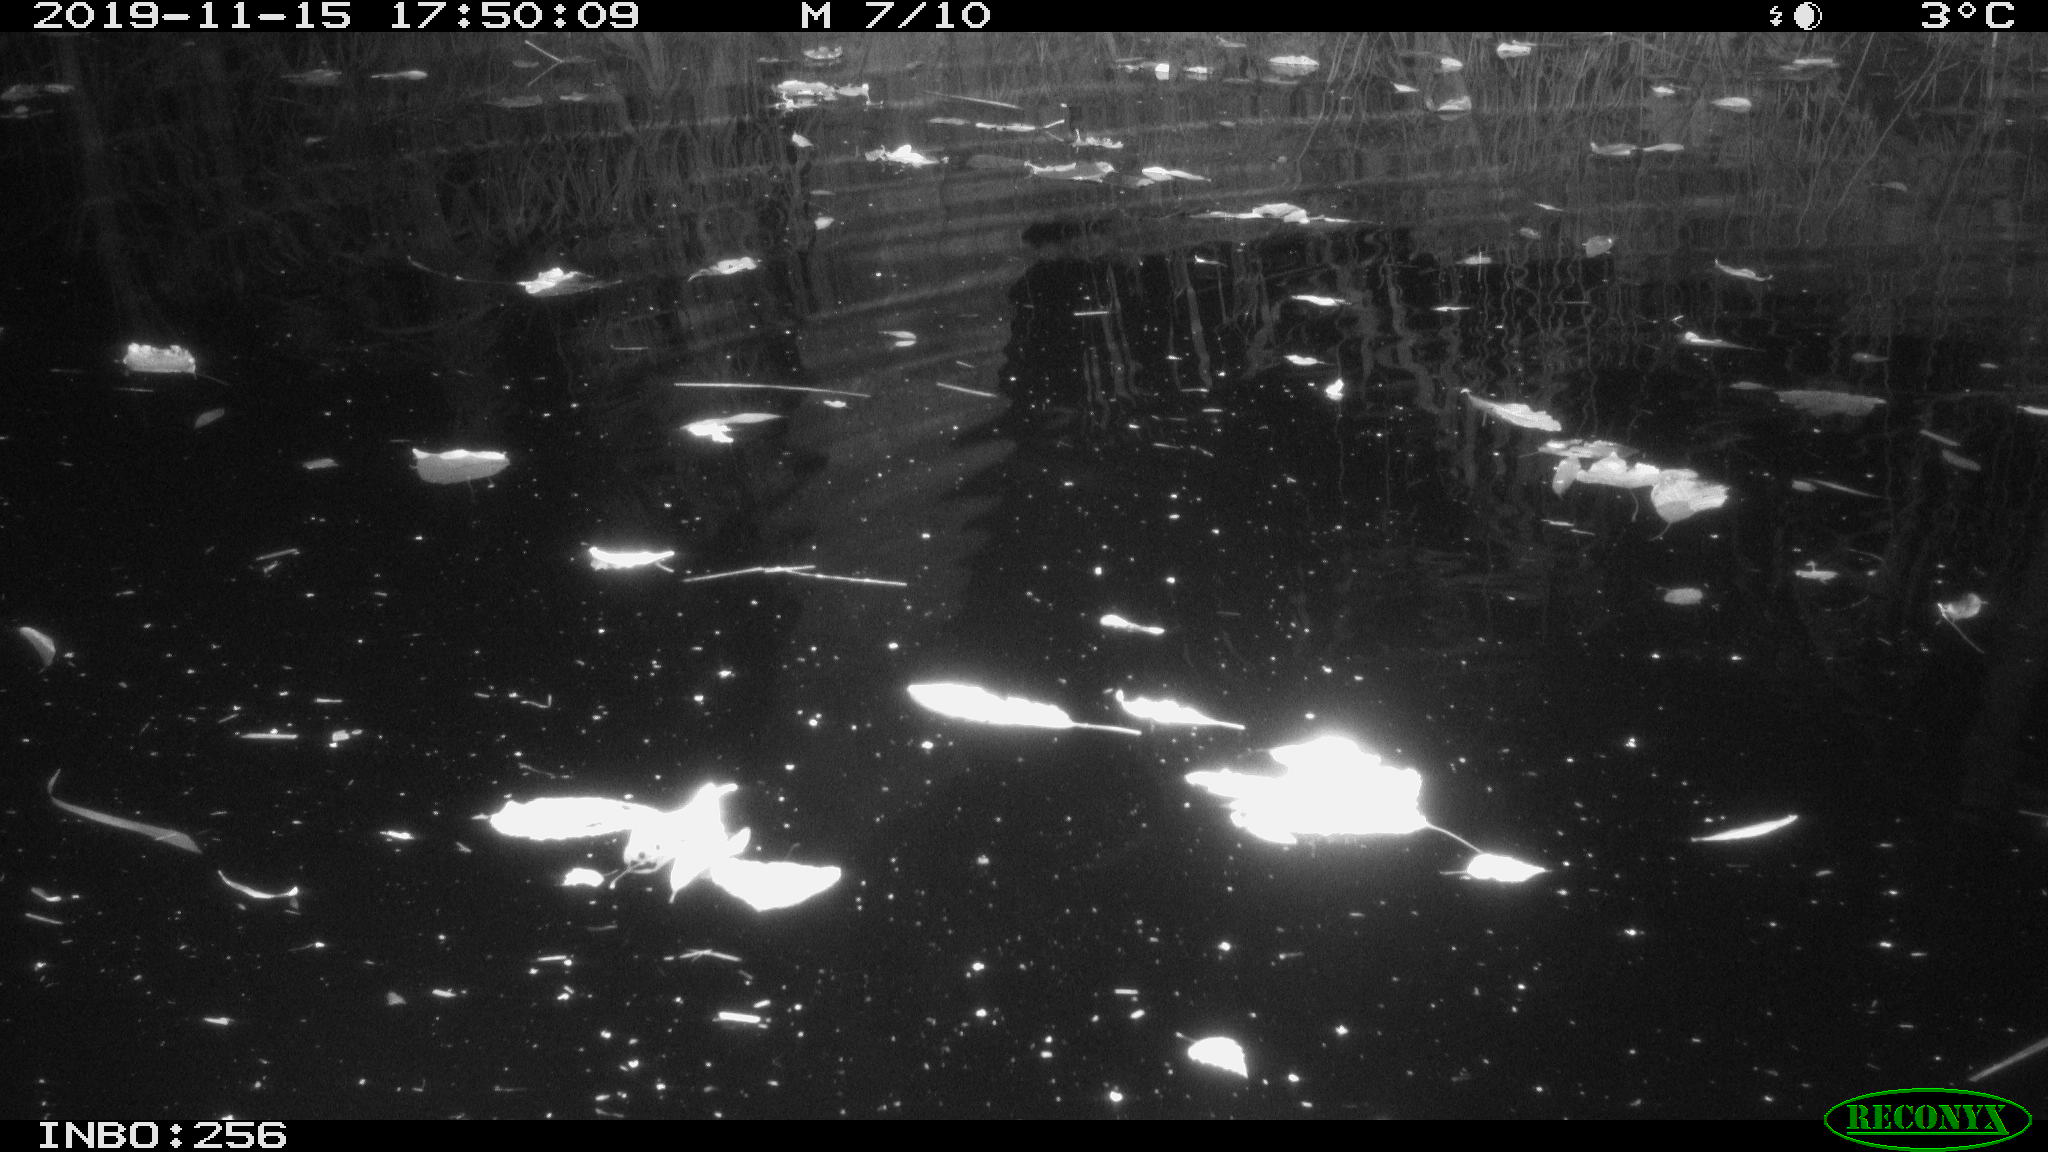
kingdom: Animalia
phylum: Chordata
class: Mammalia
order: Rodentia
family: Muridae
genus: Rattus
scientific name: Rattus norvegicus
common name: Brown rat
